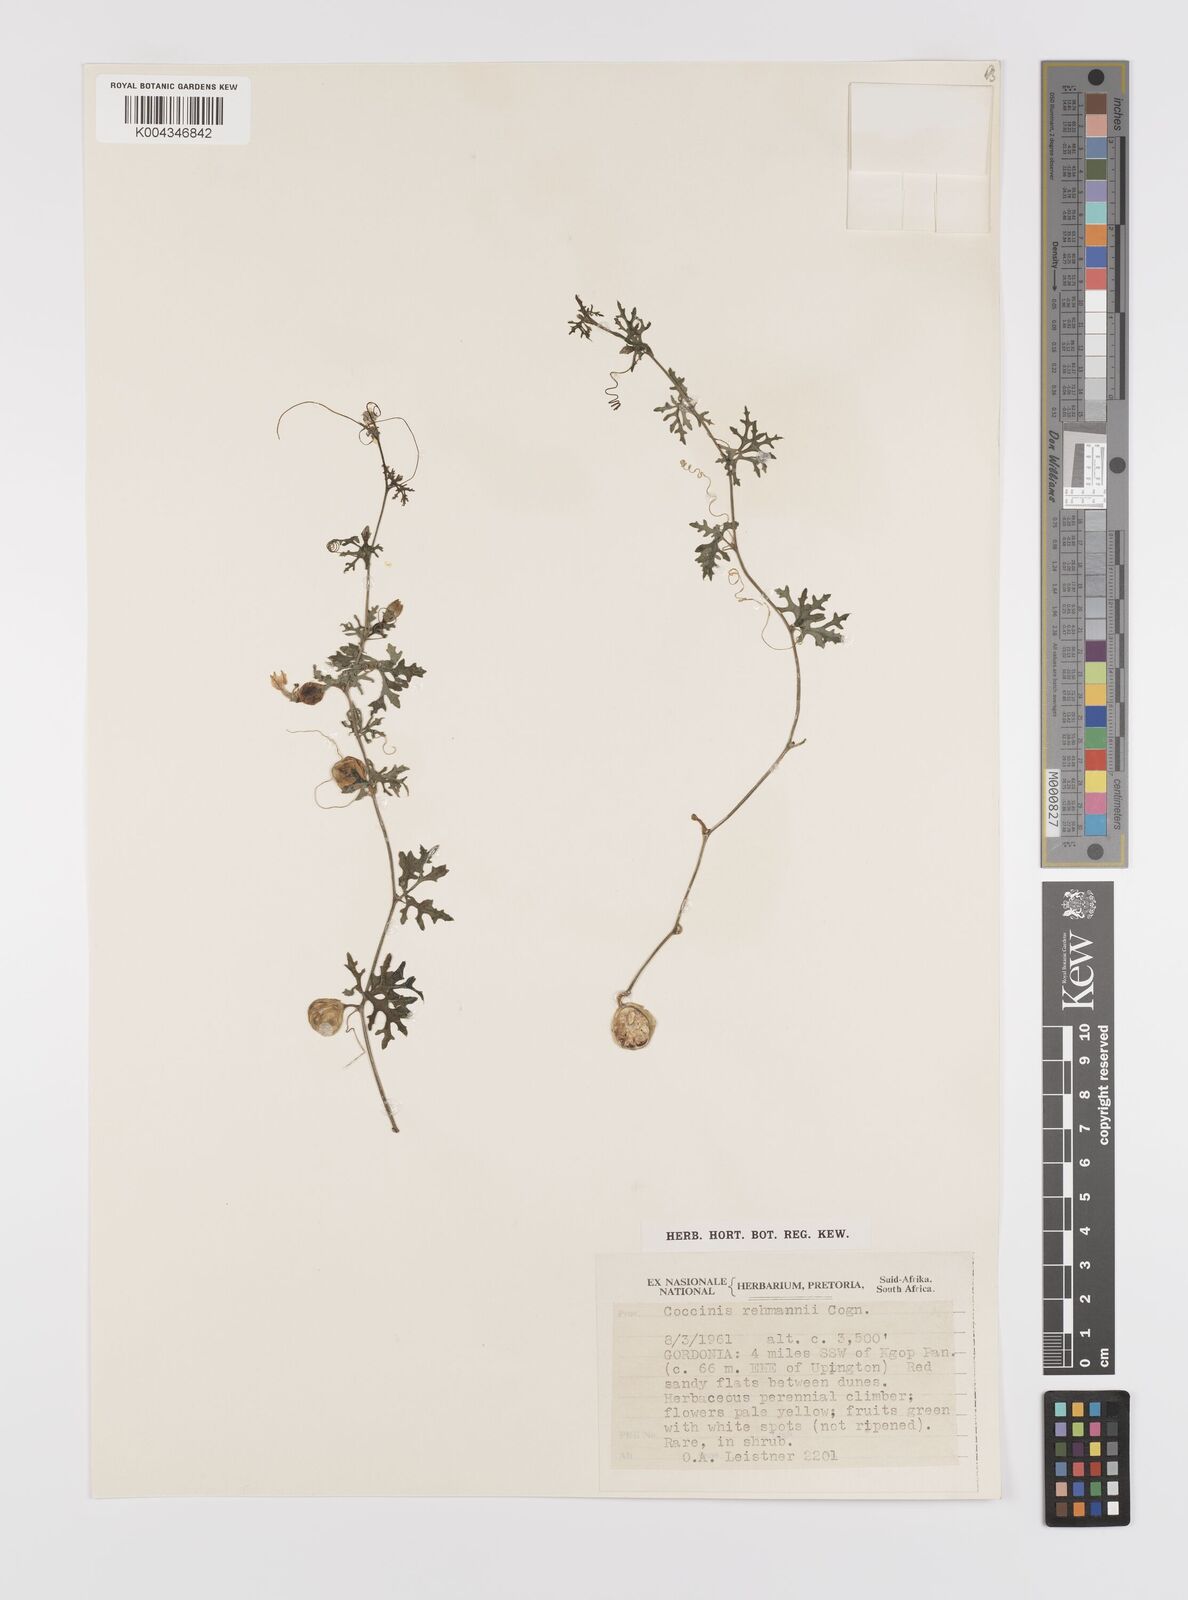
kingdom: Plantae
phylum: Tracheophyta
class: Magnoliopsida
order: Cucurbitales
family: Cucurbitaceae
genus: Coccinia
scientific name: Coccinia rehmannii
